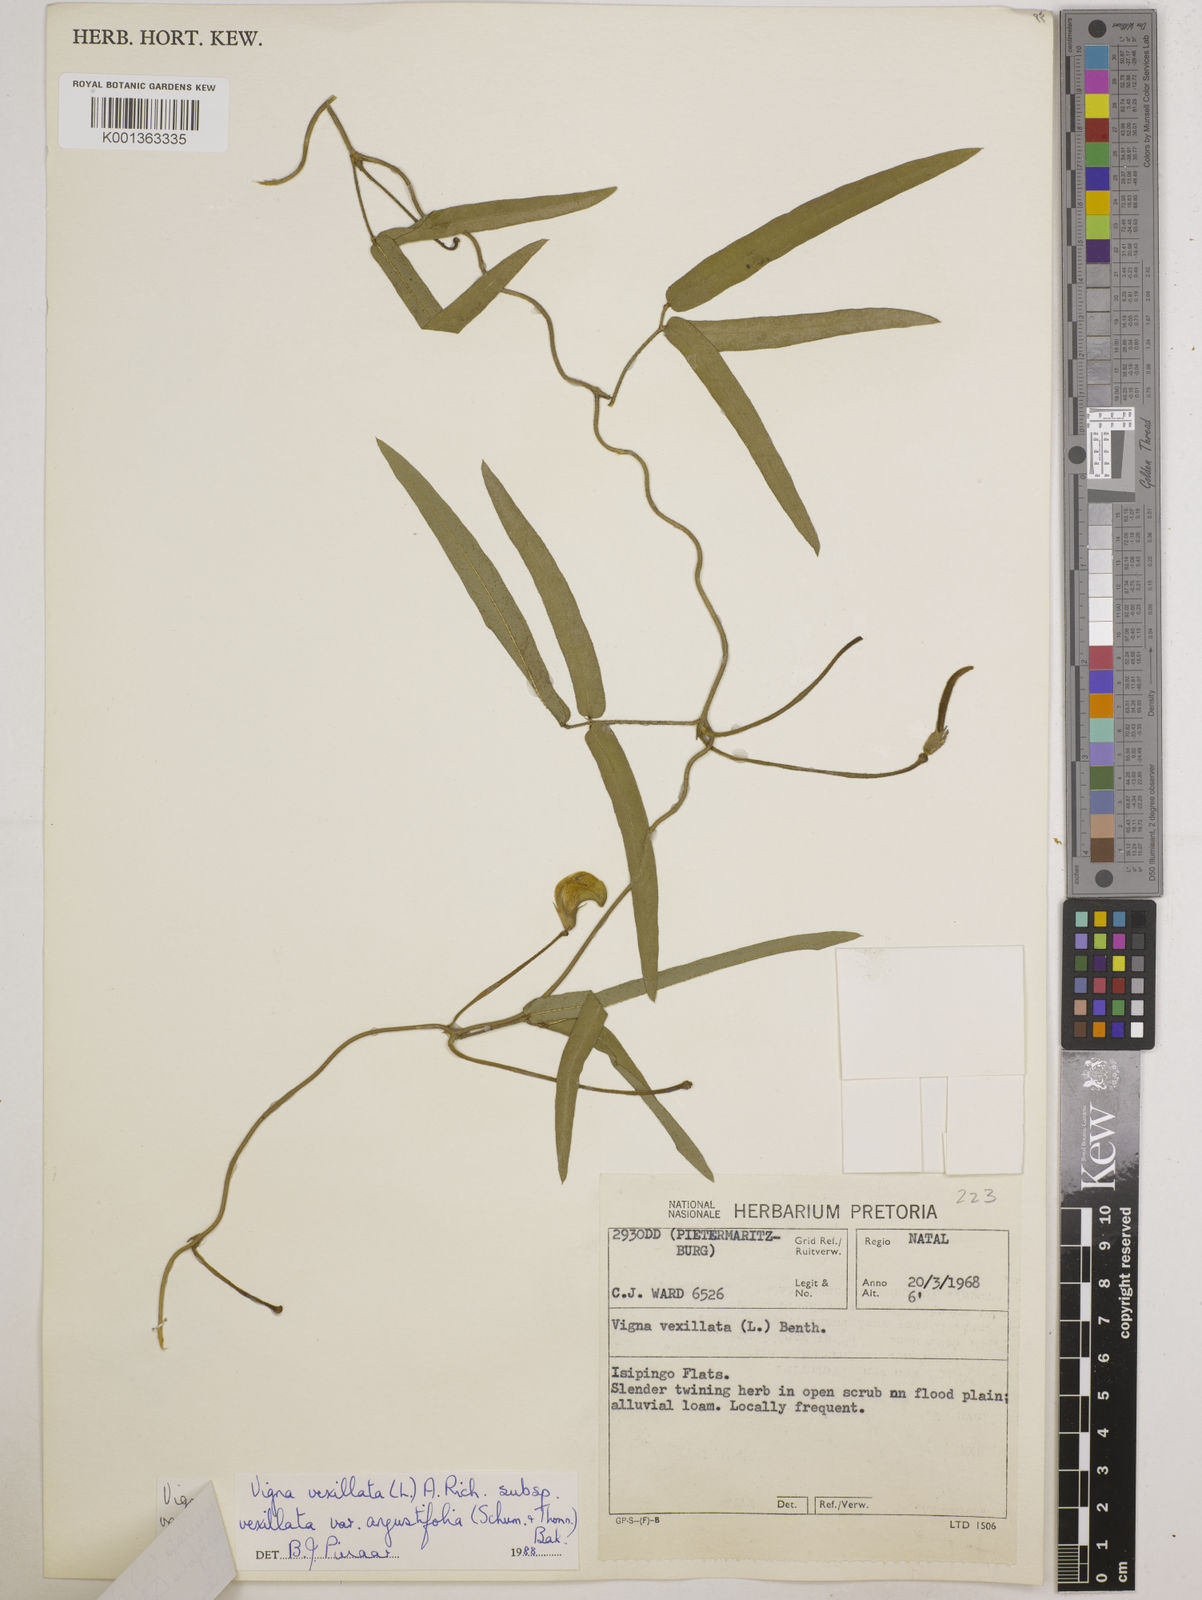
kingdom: Plantae
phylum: Tracheophyta
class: Magnoliopsida
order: Fabales
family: Fabaceae
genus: Vigna
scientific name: Vigna
